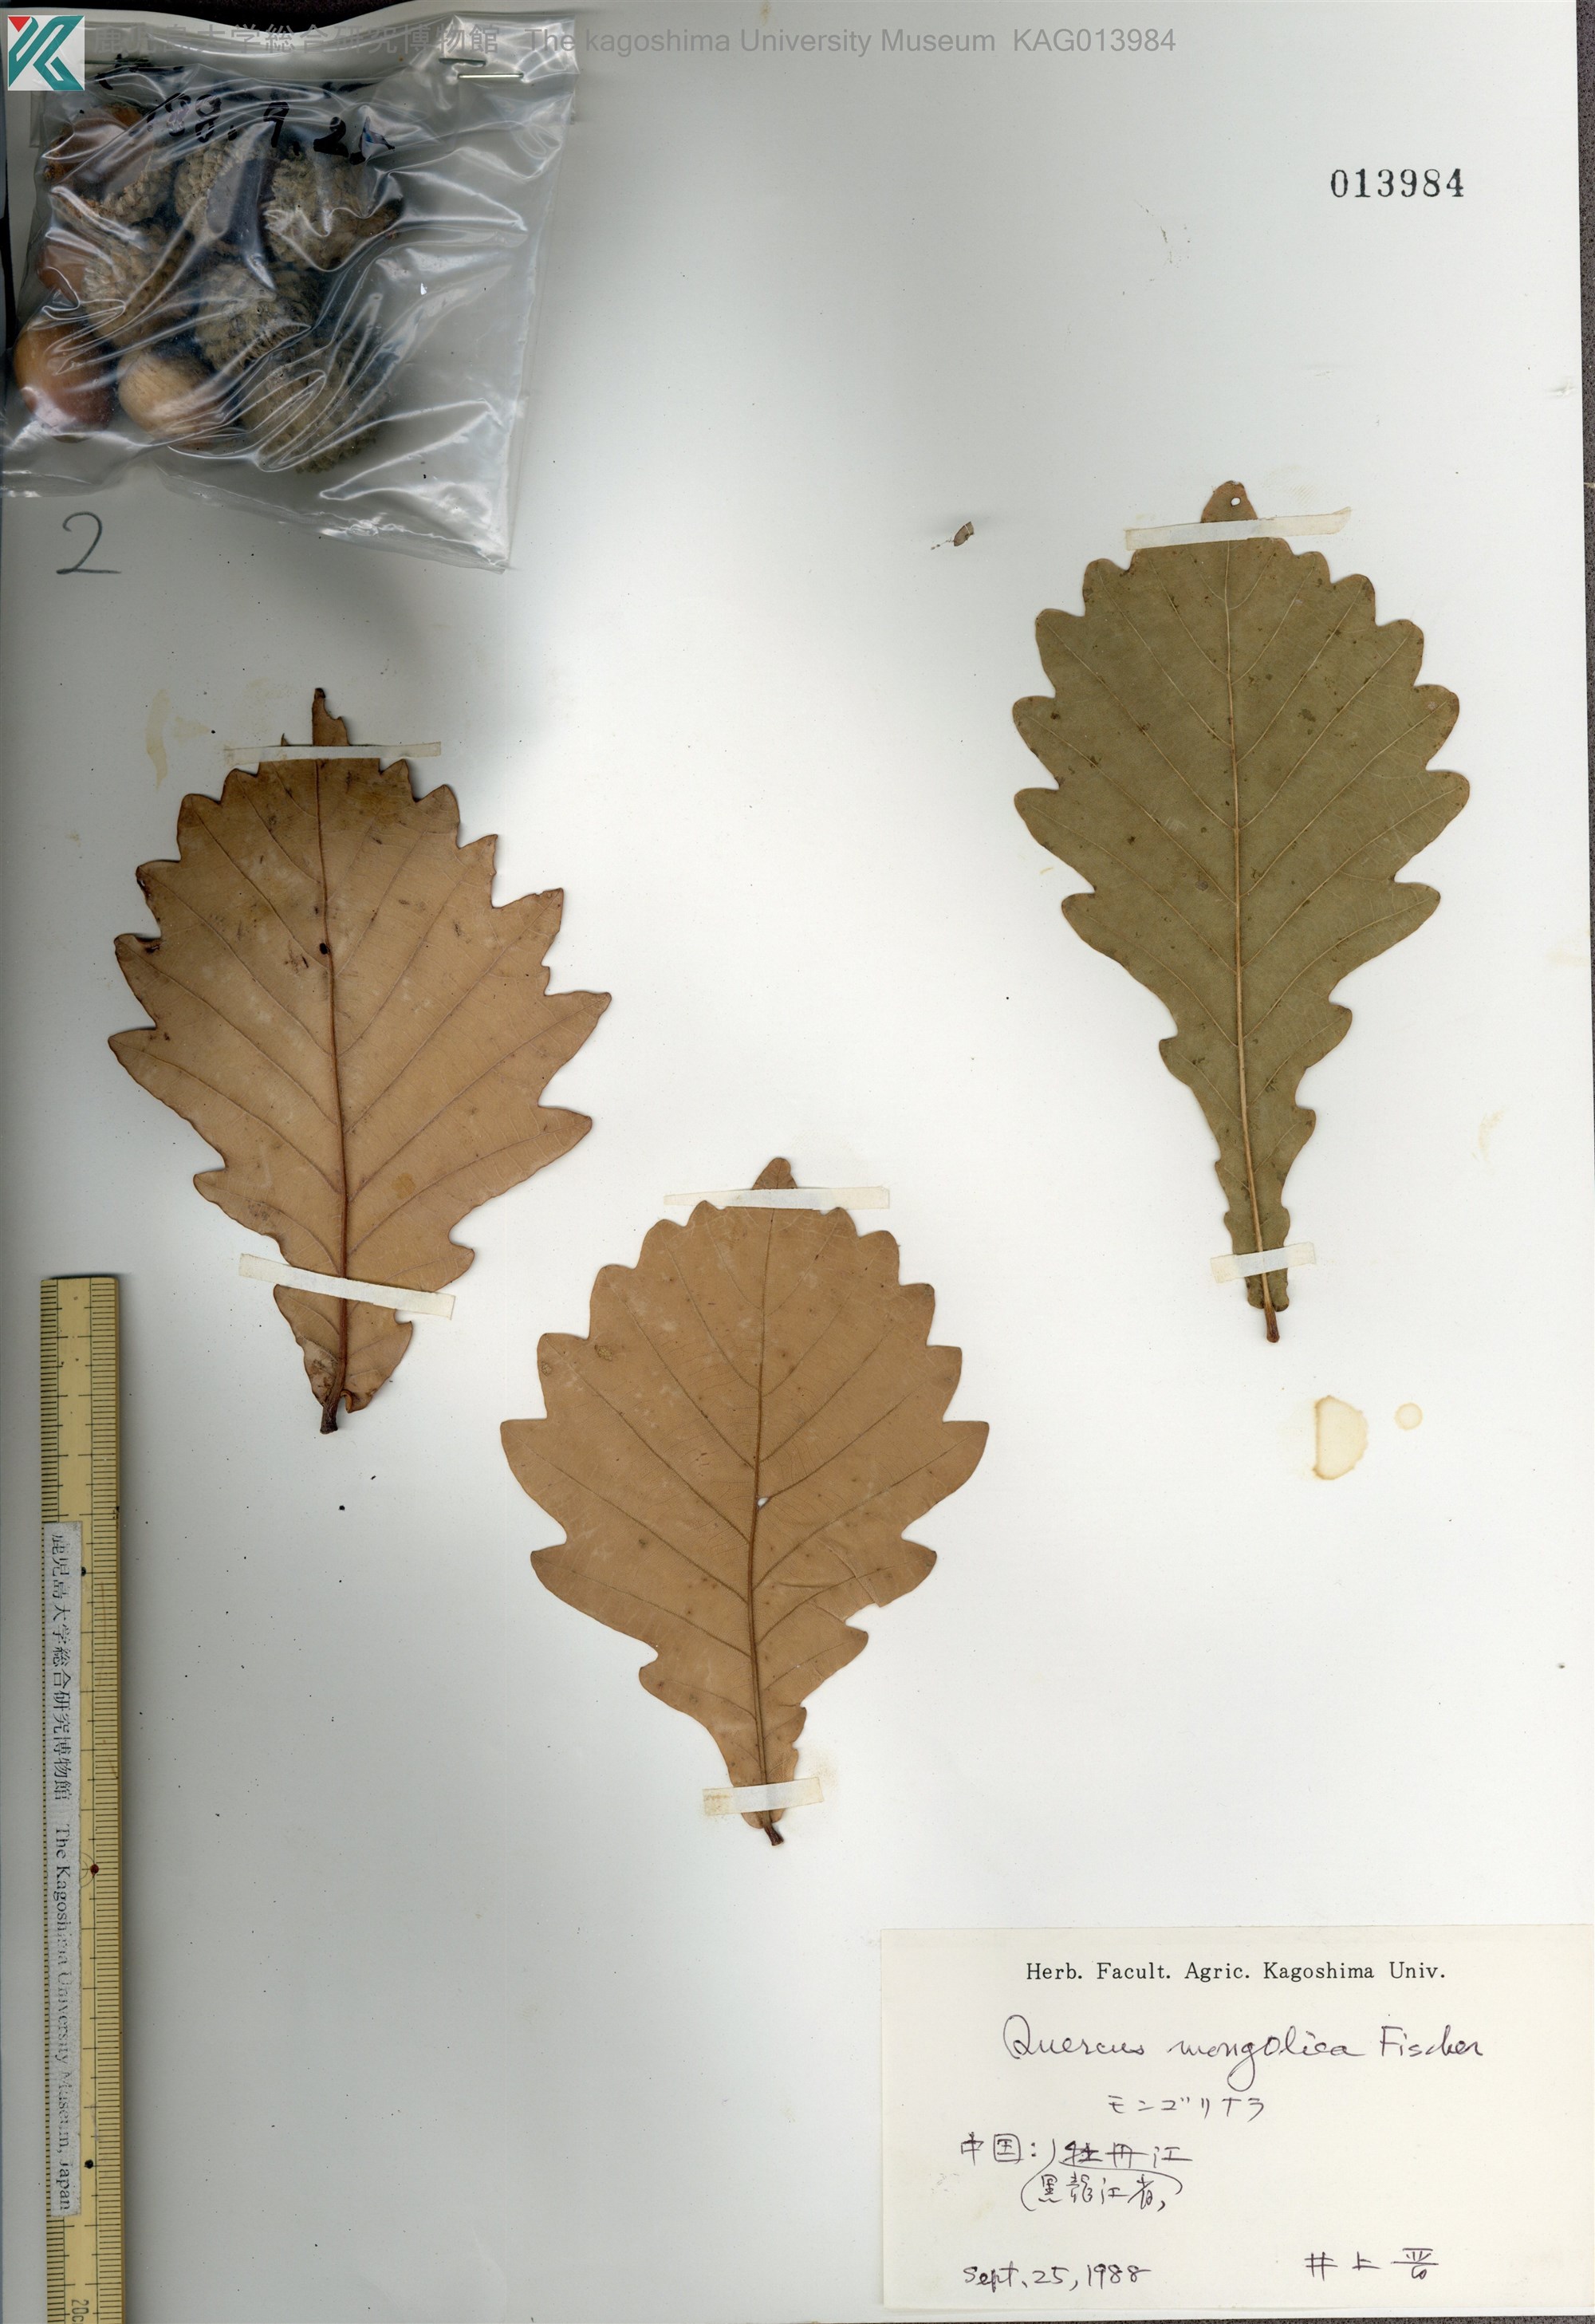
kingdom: Plantae
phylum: Tracheophyta
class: Magnoliopsida
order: Fagales
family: Fagaceae
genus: Quercus
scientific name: Quercus mongolica
